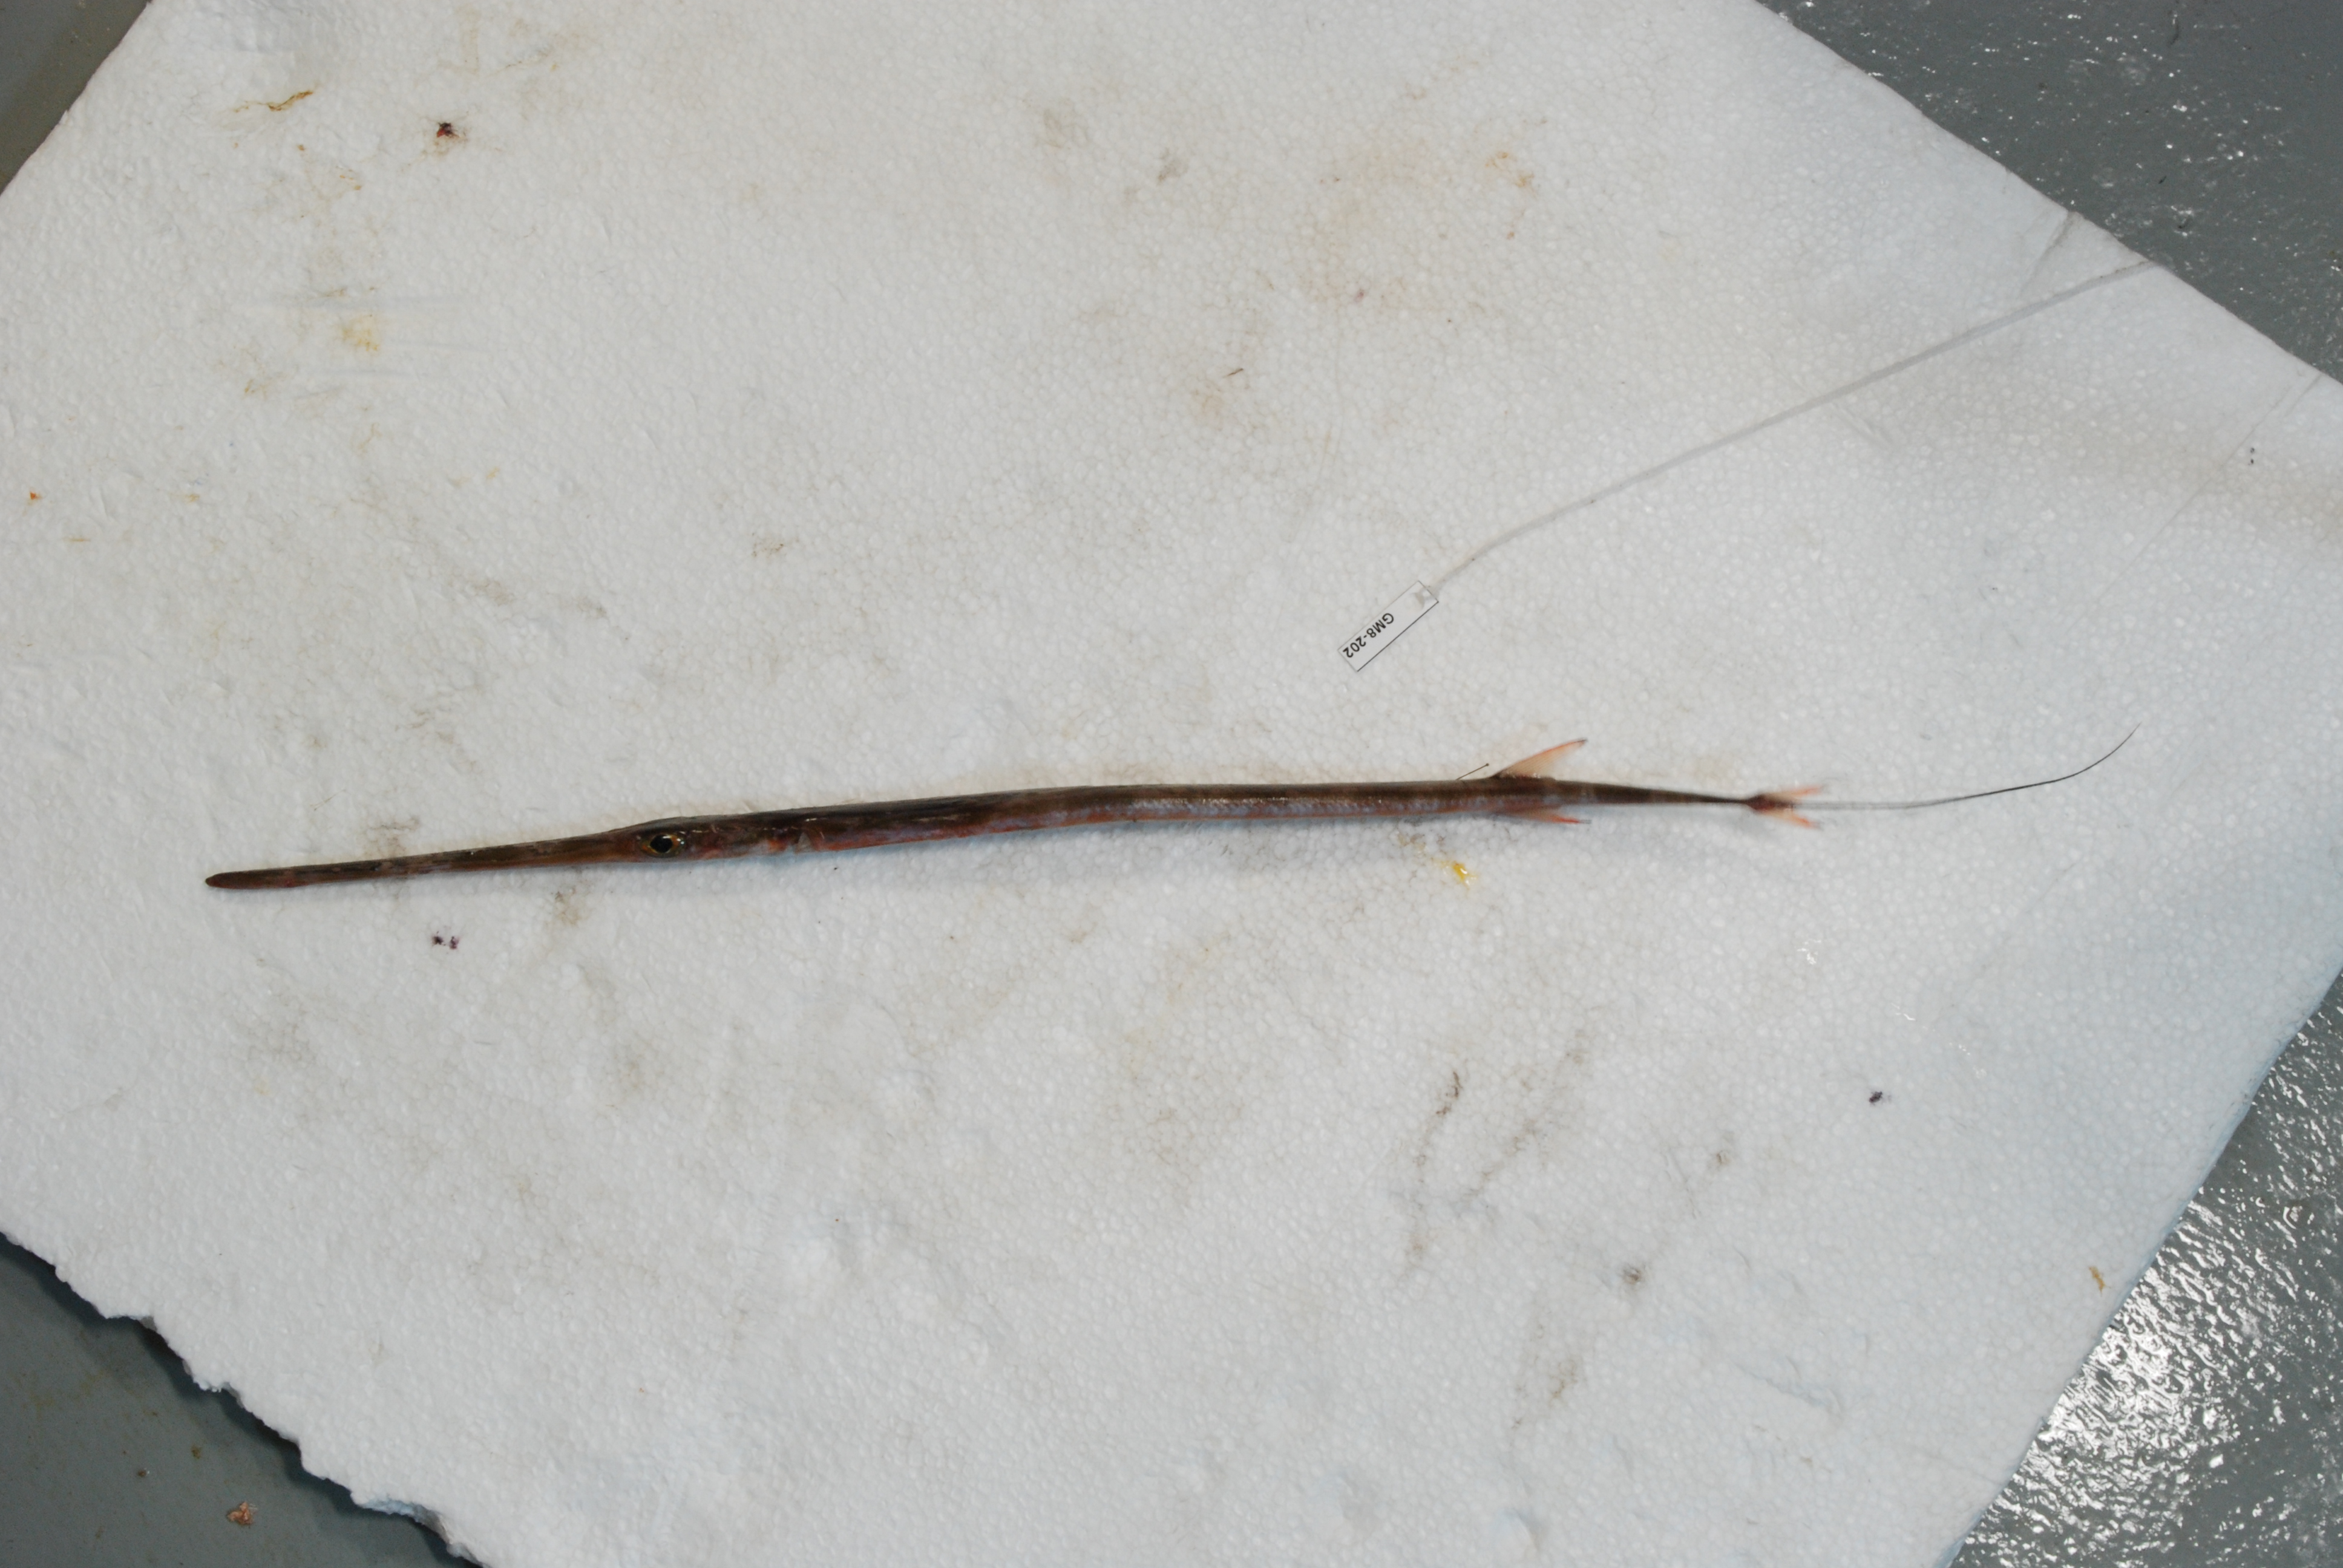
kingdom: Animalia
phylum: Chordata
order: Syngnathiformes
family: Fistulariidae
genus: Fistularia
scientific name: Fistularia commersonii
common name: Bluespotted cornetfish
